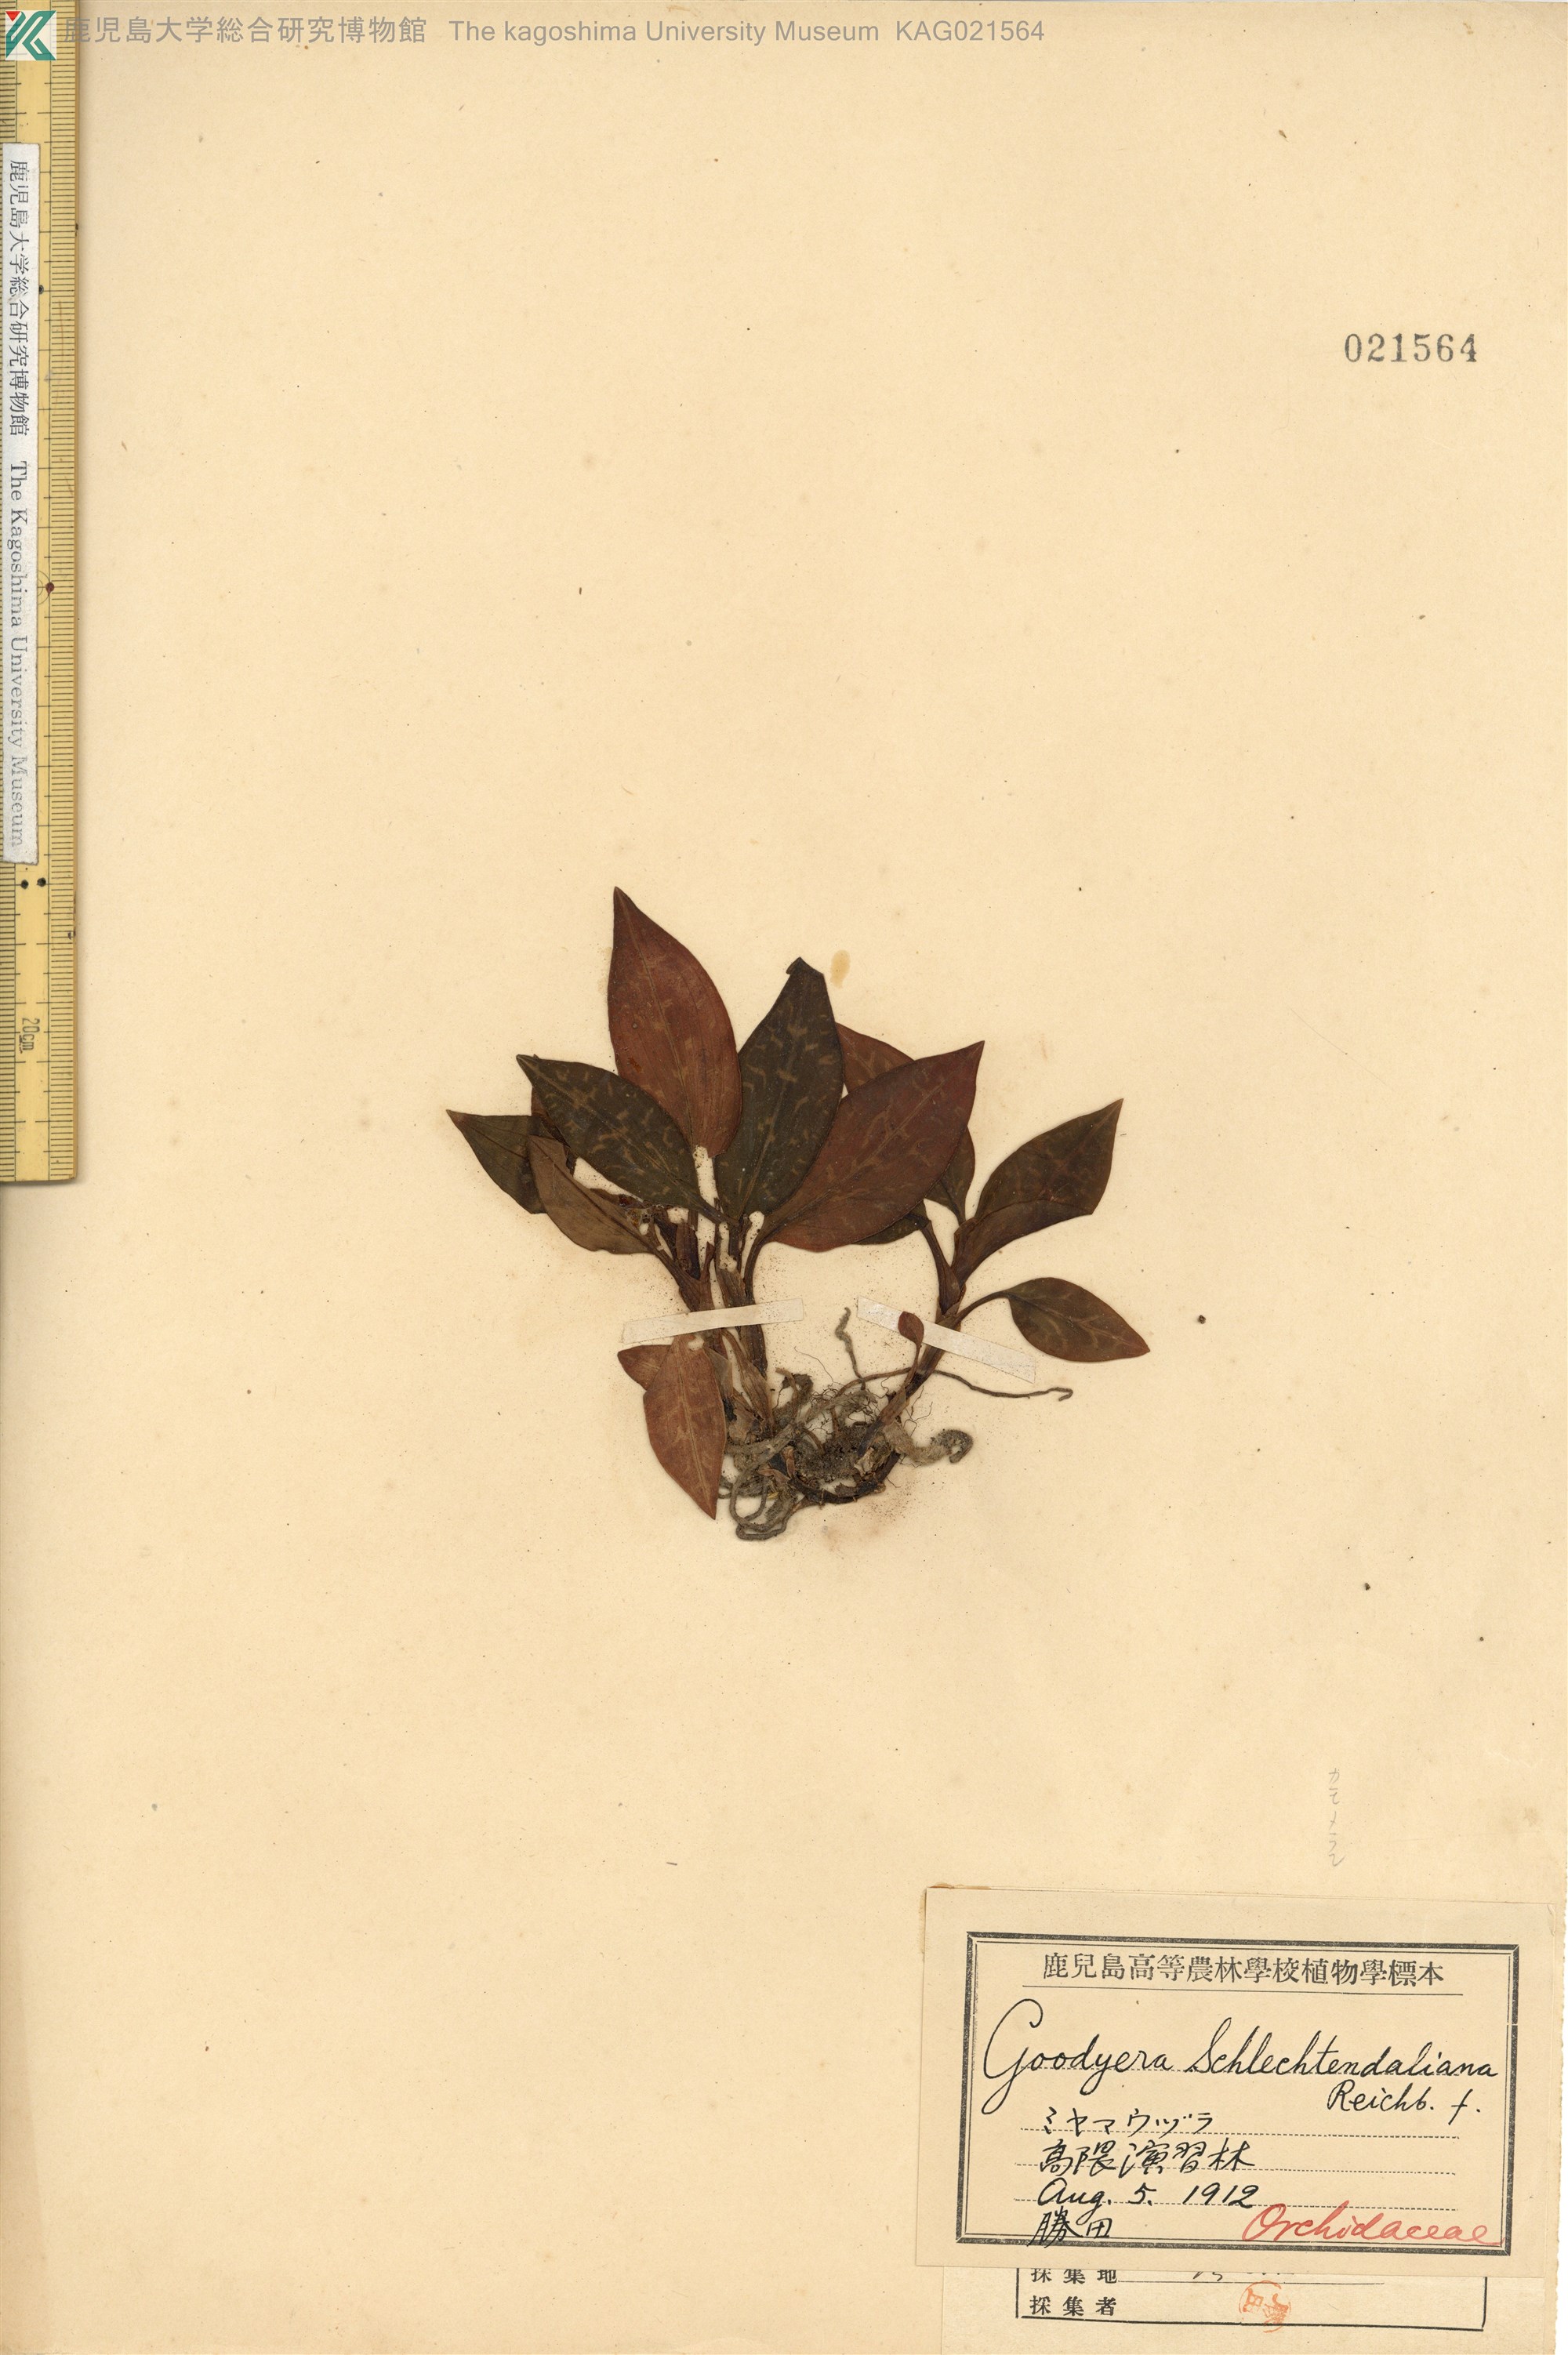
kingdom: Plantae
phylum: Tracheophyta
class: Liliopsida
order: Asparagales
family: Orchidaceae
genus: Goodyera
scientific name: Goodyera schlechtendaliana
